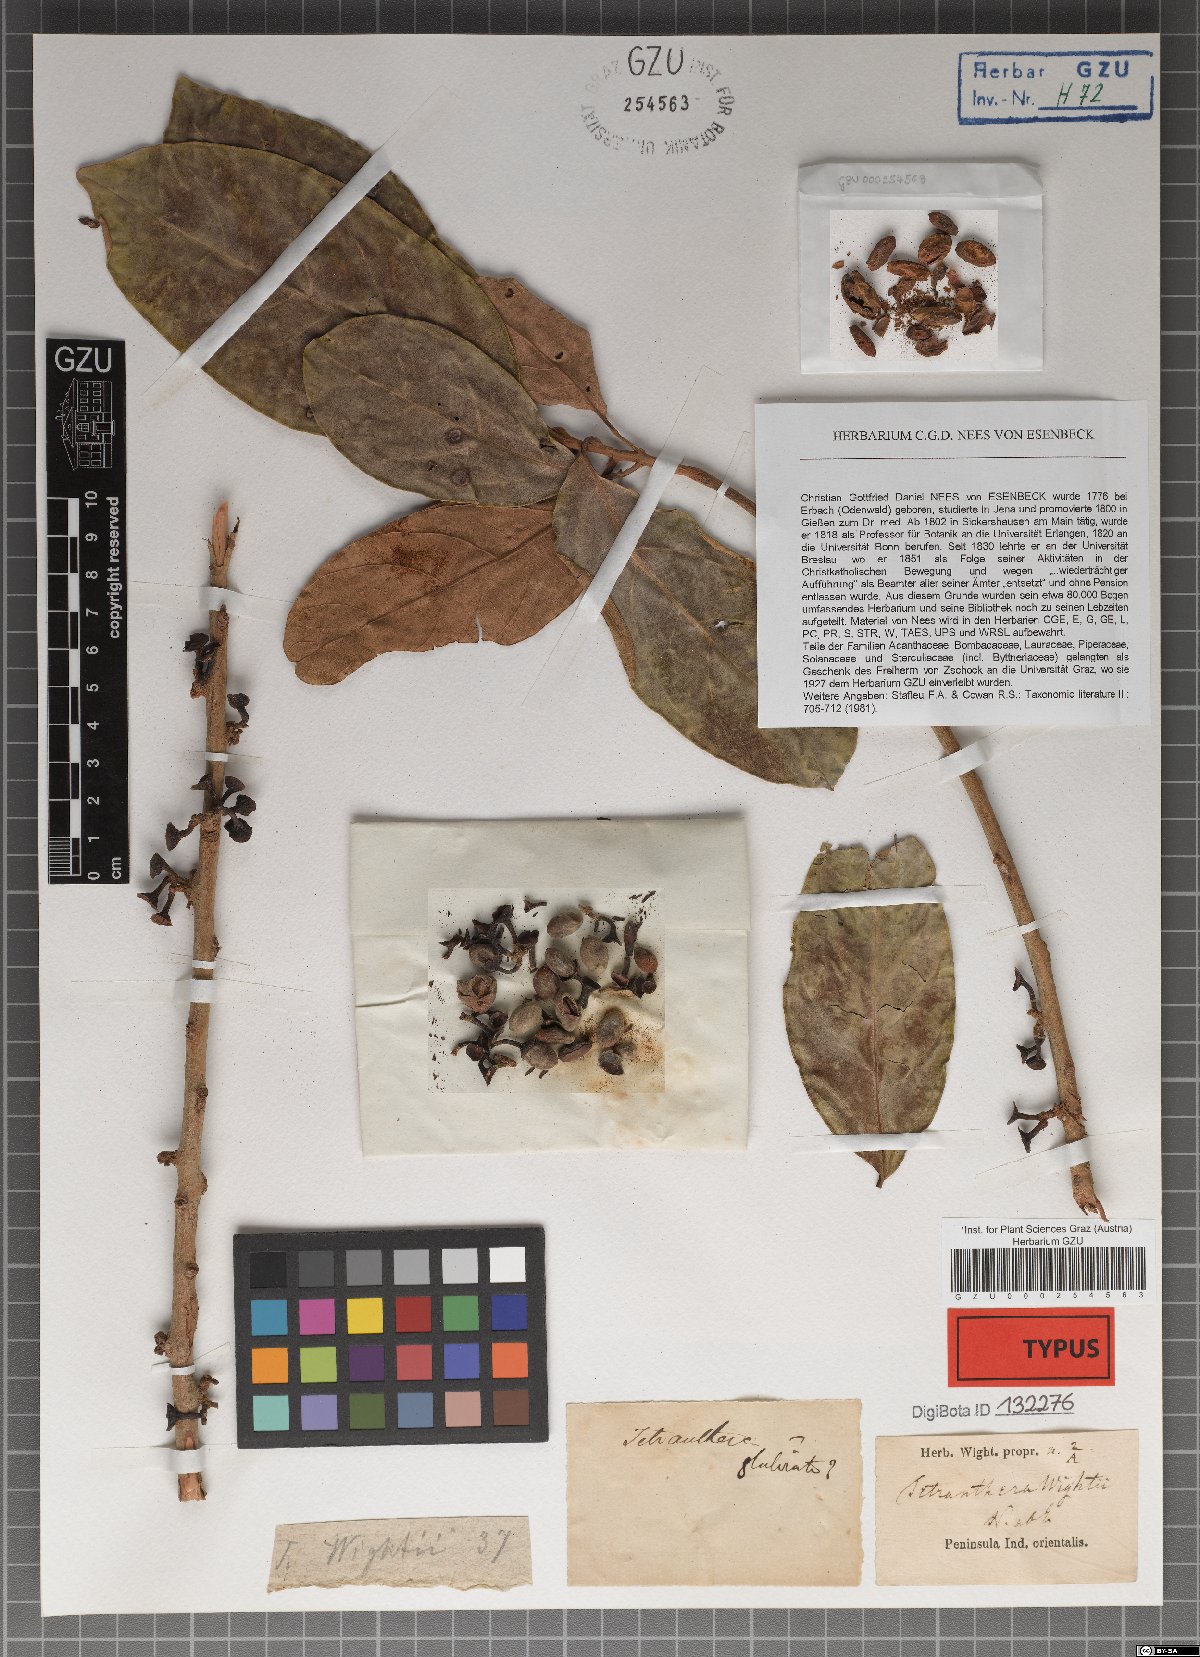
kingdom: Plantae
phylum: Tracheophyta
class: Magnoliopsida
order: Laurales
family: Lauraceae
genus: Litsea
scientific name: Litsea wightiana
